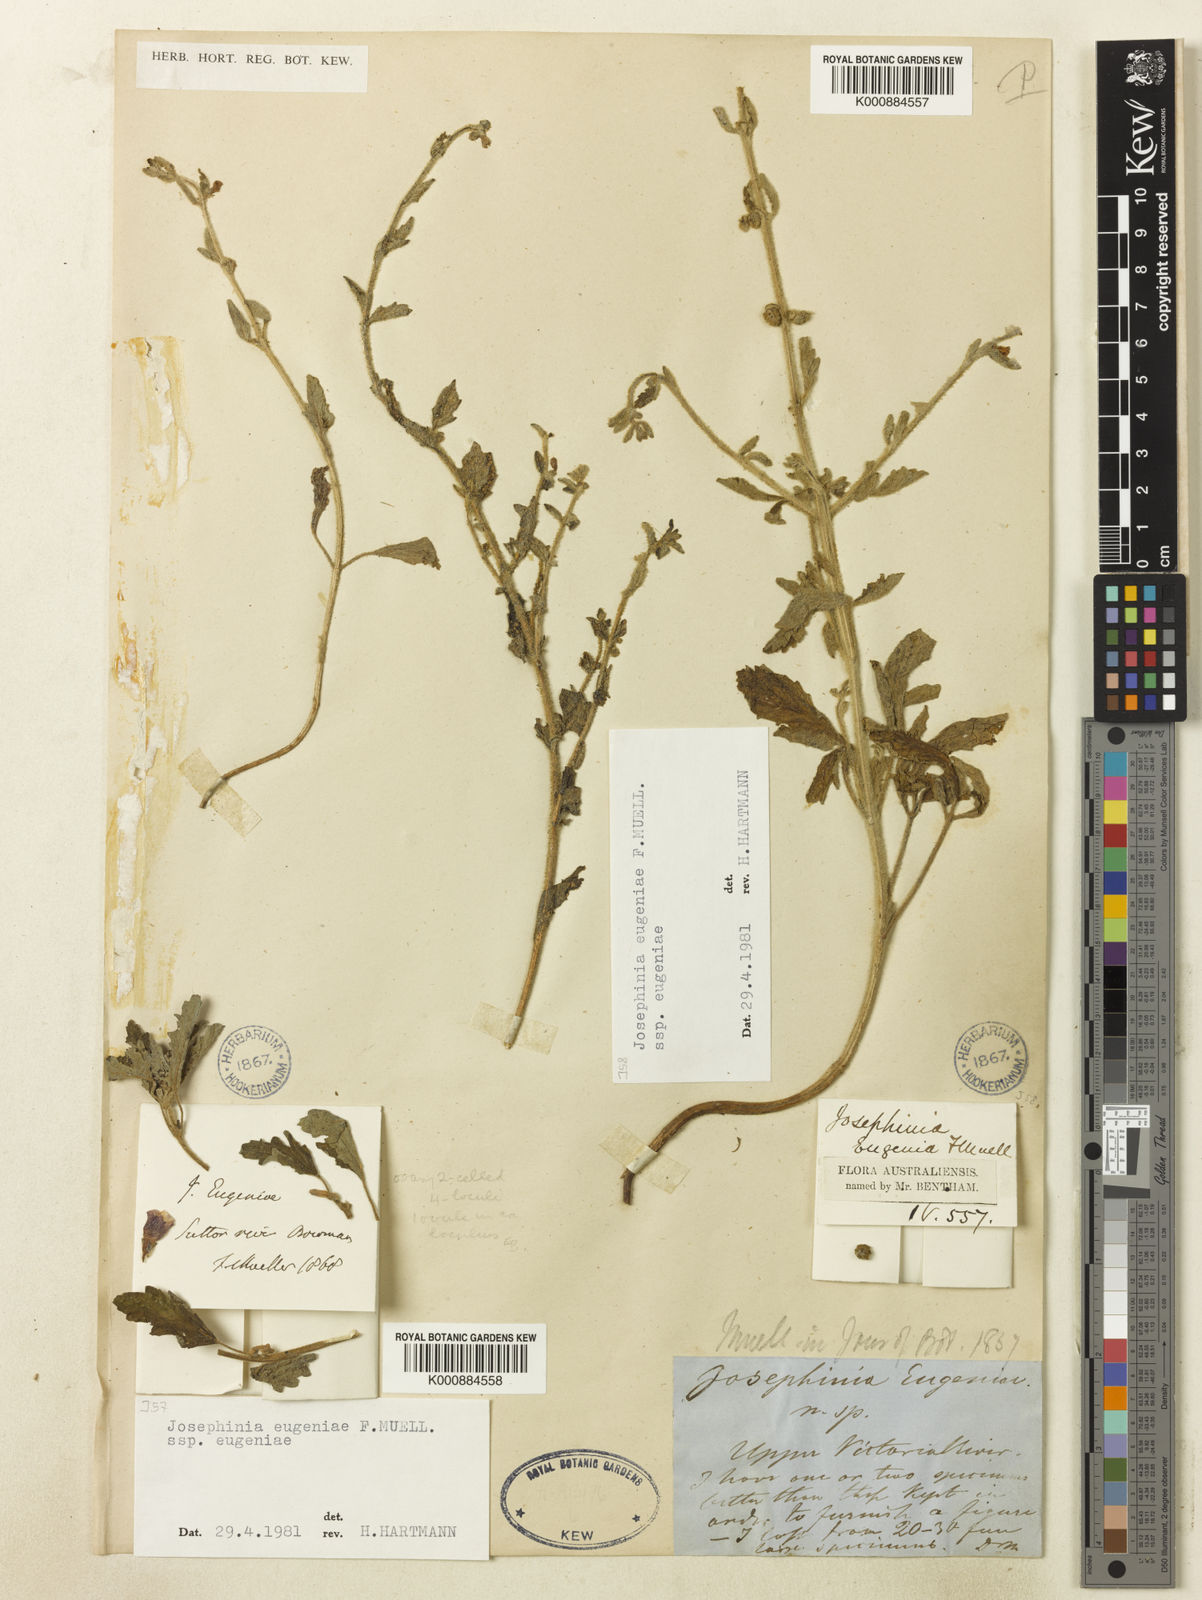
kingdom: Plantae
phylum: Tracheophyta
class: Magnoliopsida
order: Lamiales
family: Pedaliaceae
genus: Josephinia
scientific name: Josephinia eugeniae
